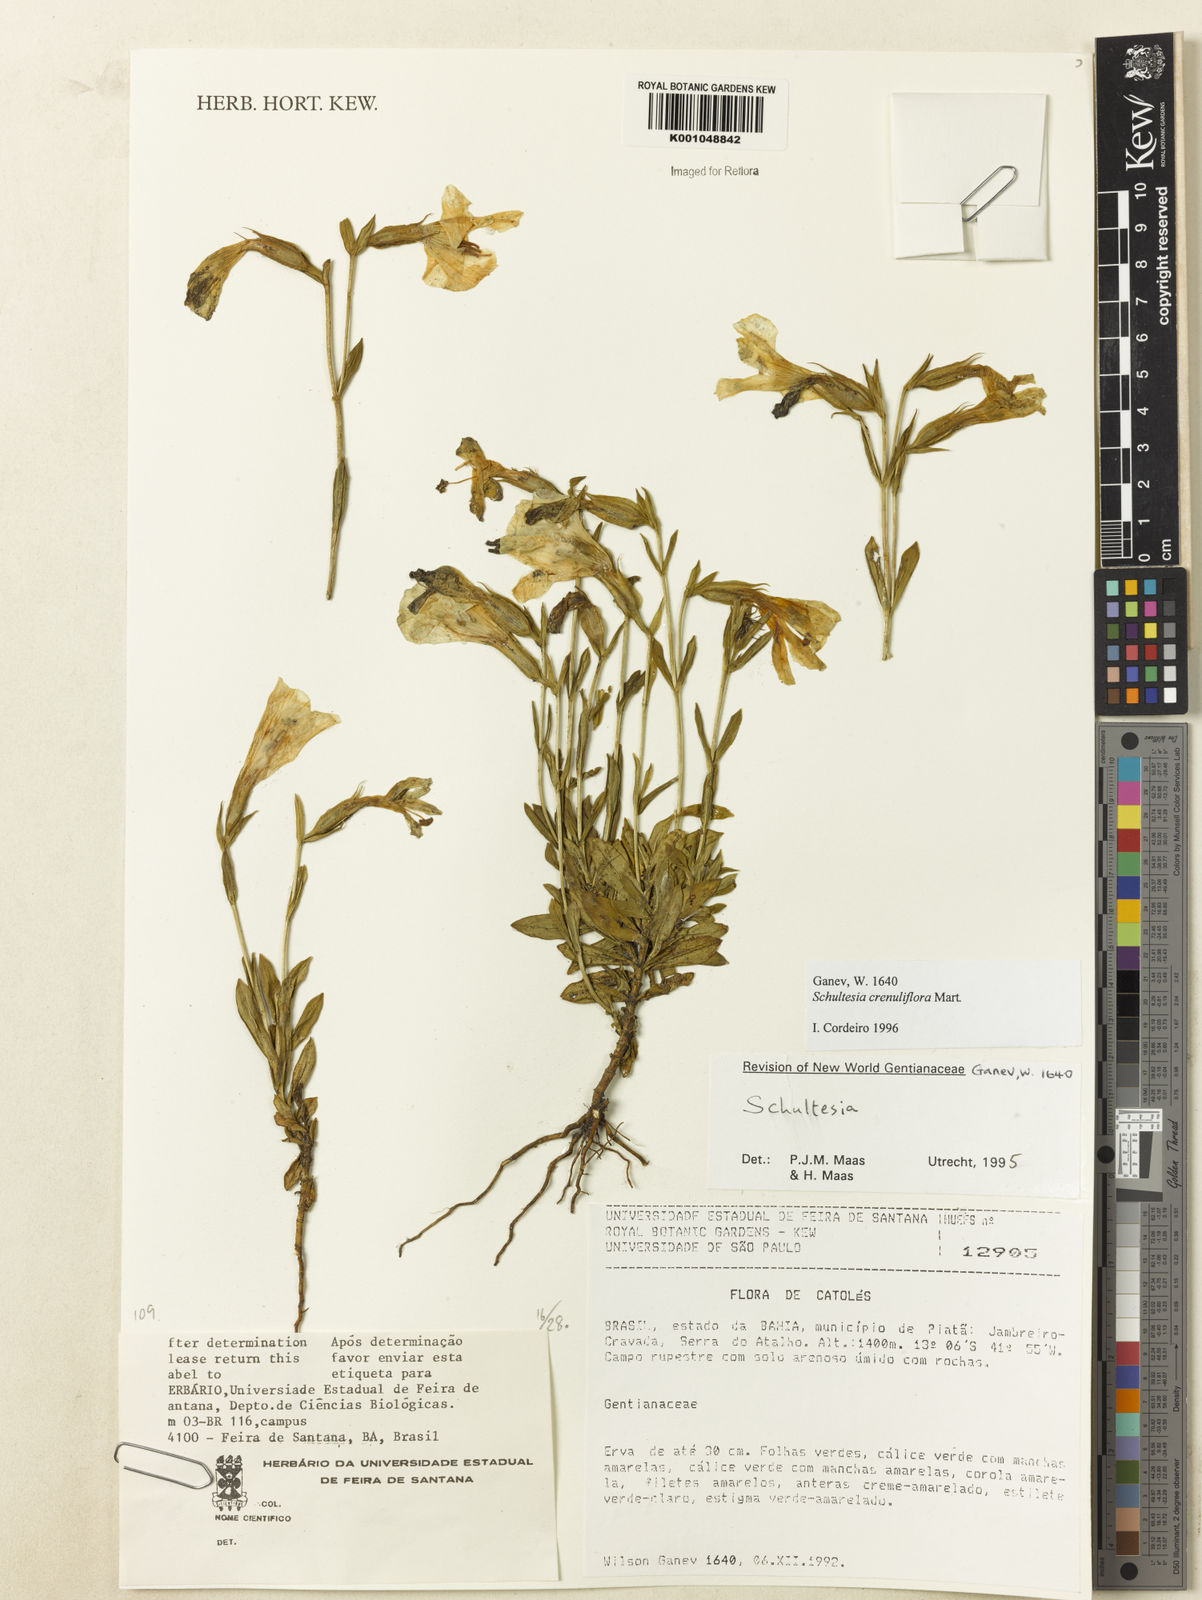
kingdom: Plantae
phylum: Tracheophyta
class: Magnoliopsida
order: Gentianales
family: Gentianaceae
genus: Schultesia
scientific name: Schultesia crenuliflora
